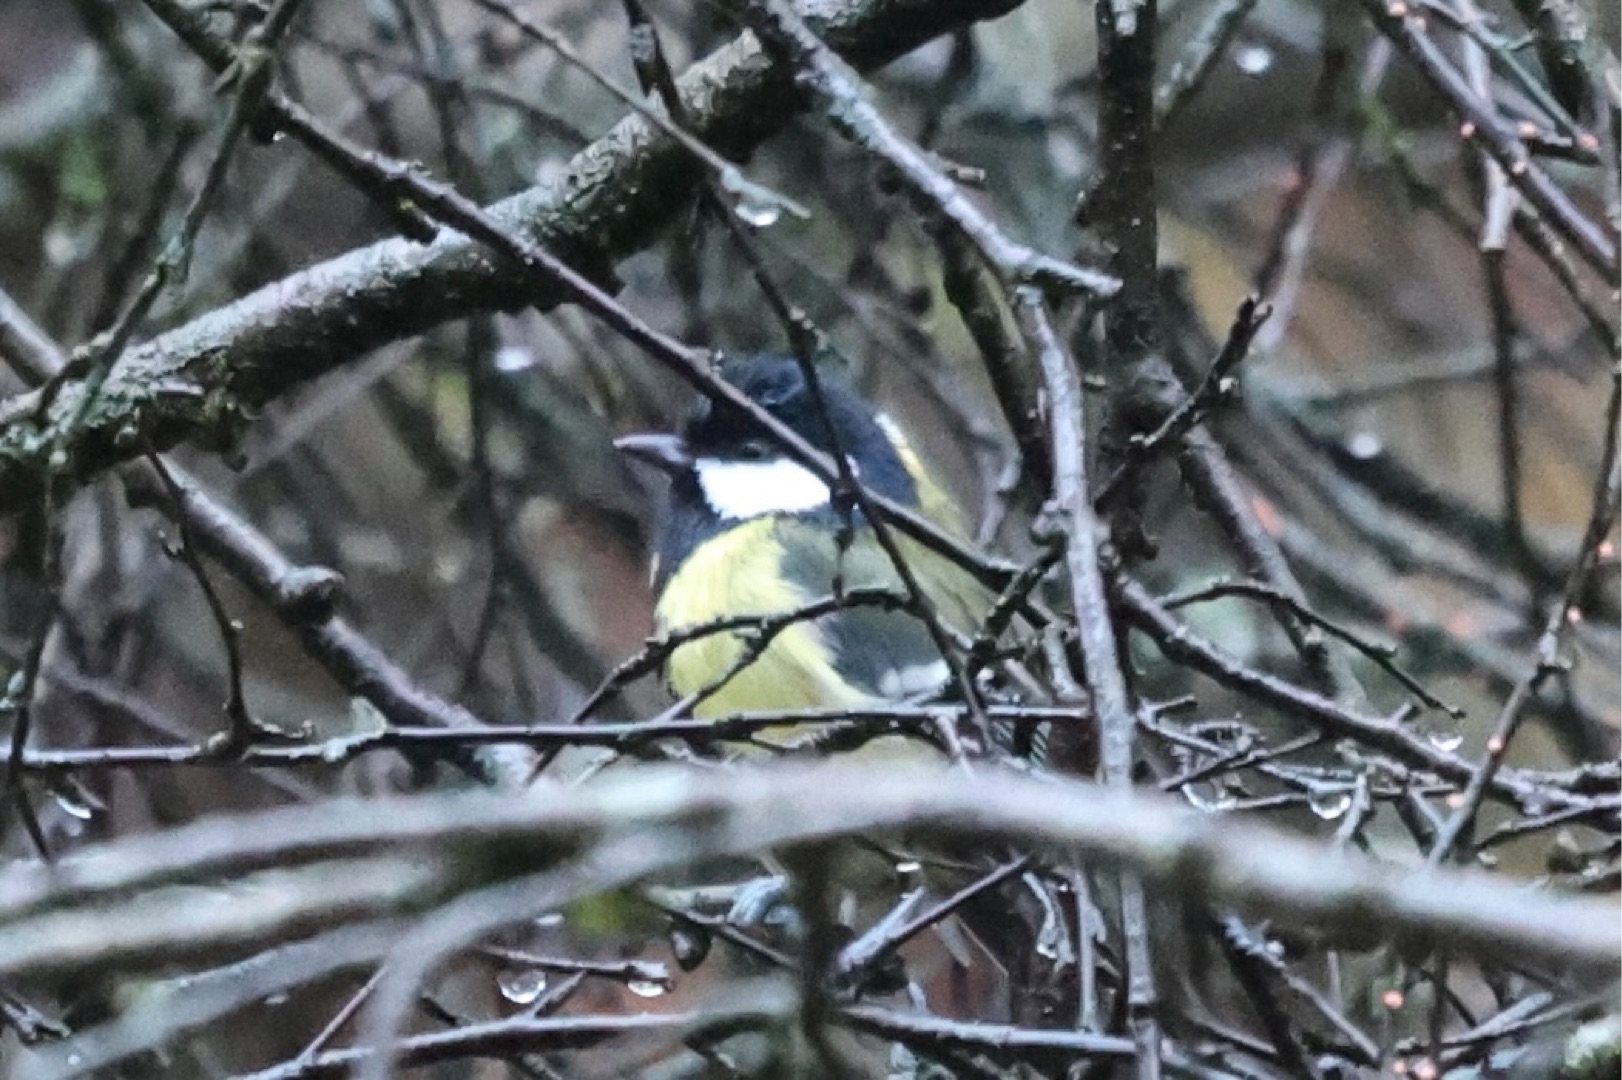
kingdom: Animalia
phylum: Chordata
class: Aves
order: Passeriformes
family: Paridae
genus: Parus
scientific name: Parus major
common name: Musvit
